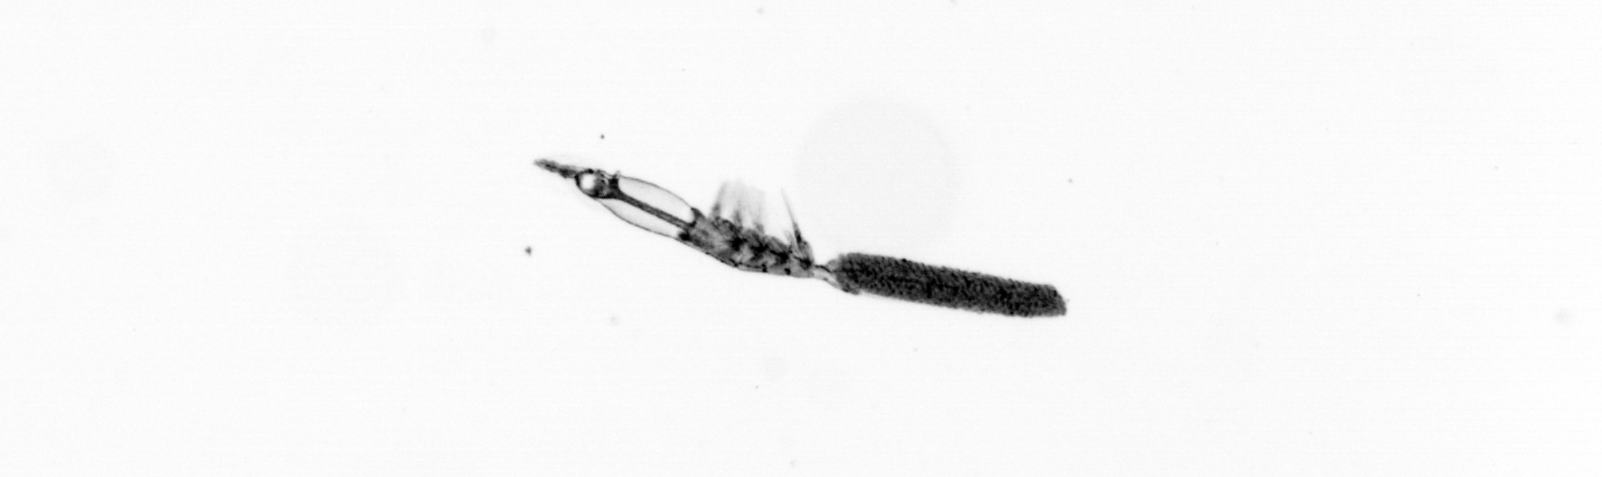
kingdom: Animalia
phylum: Arthropoda
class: Copepoda
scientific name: Copepoda
